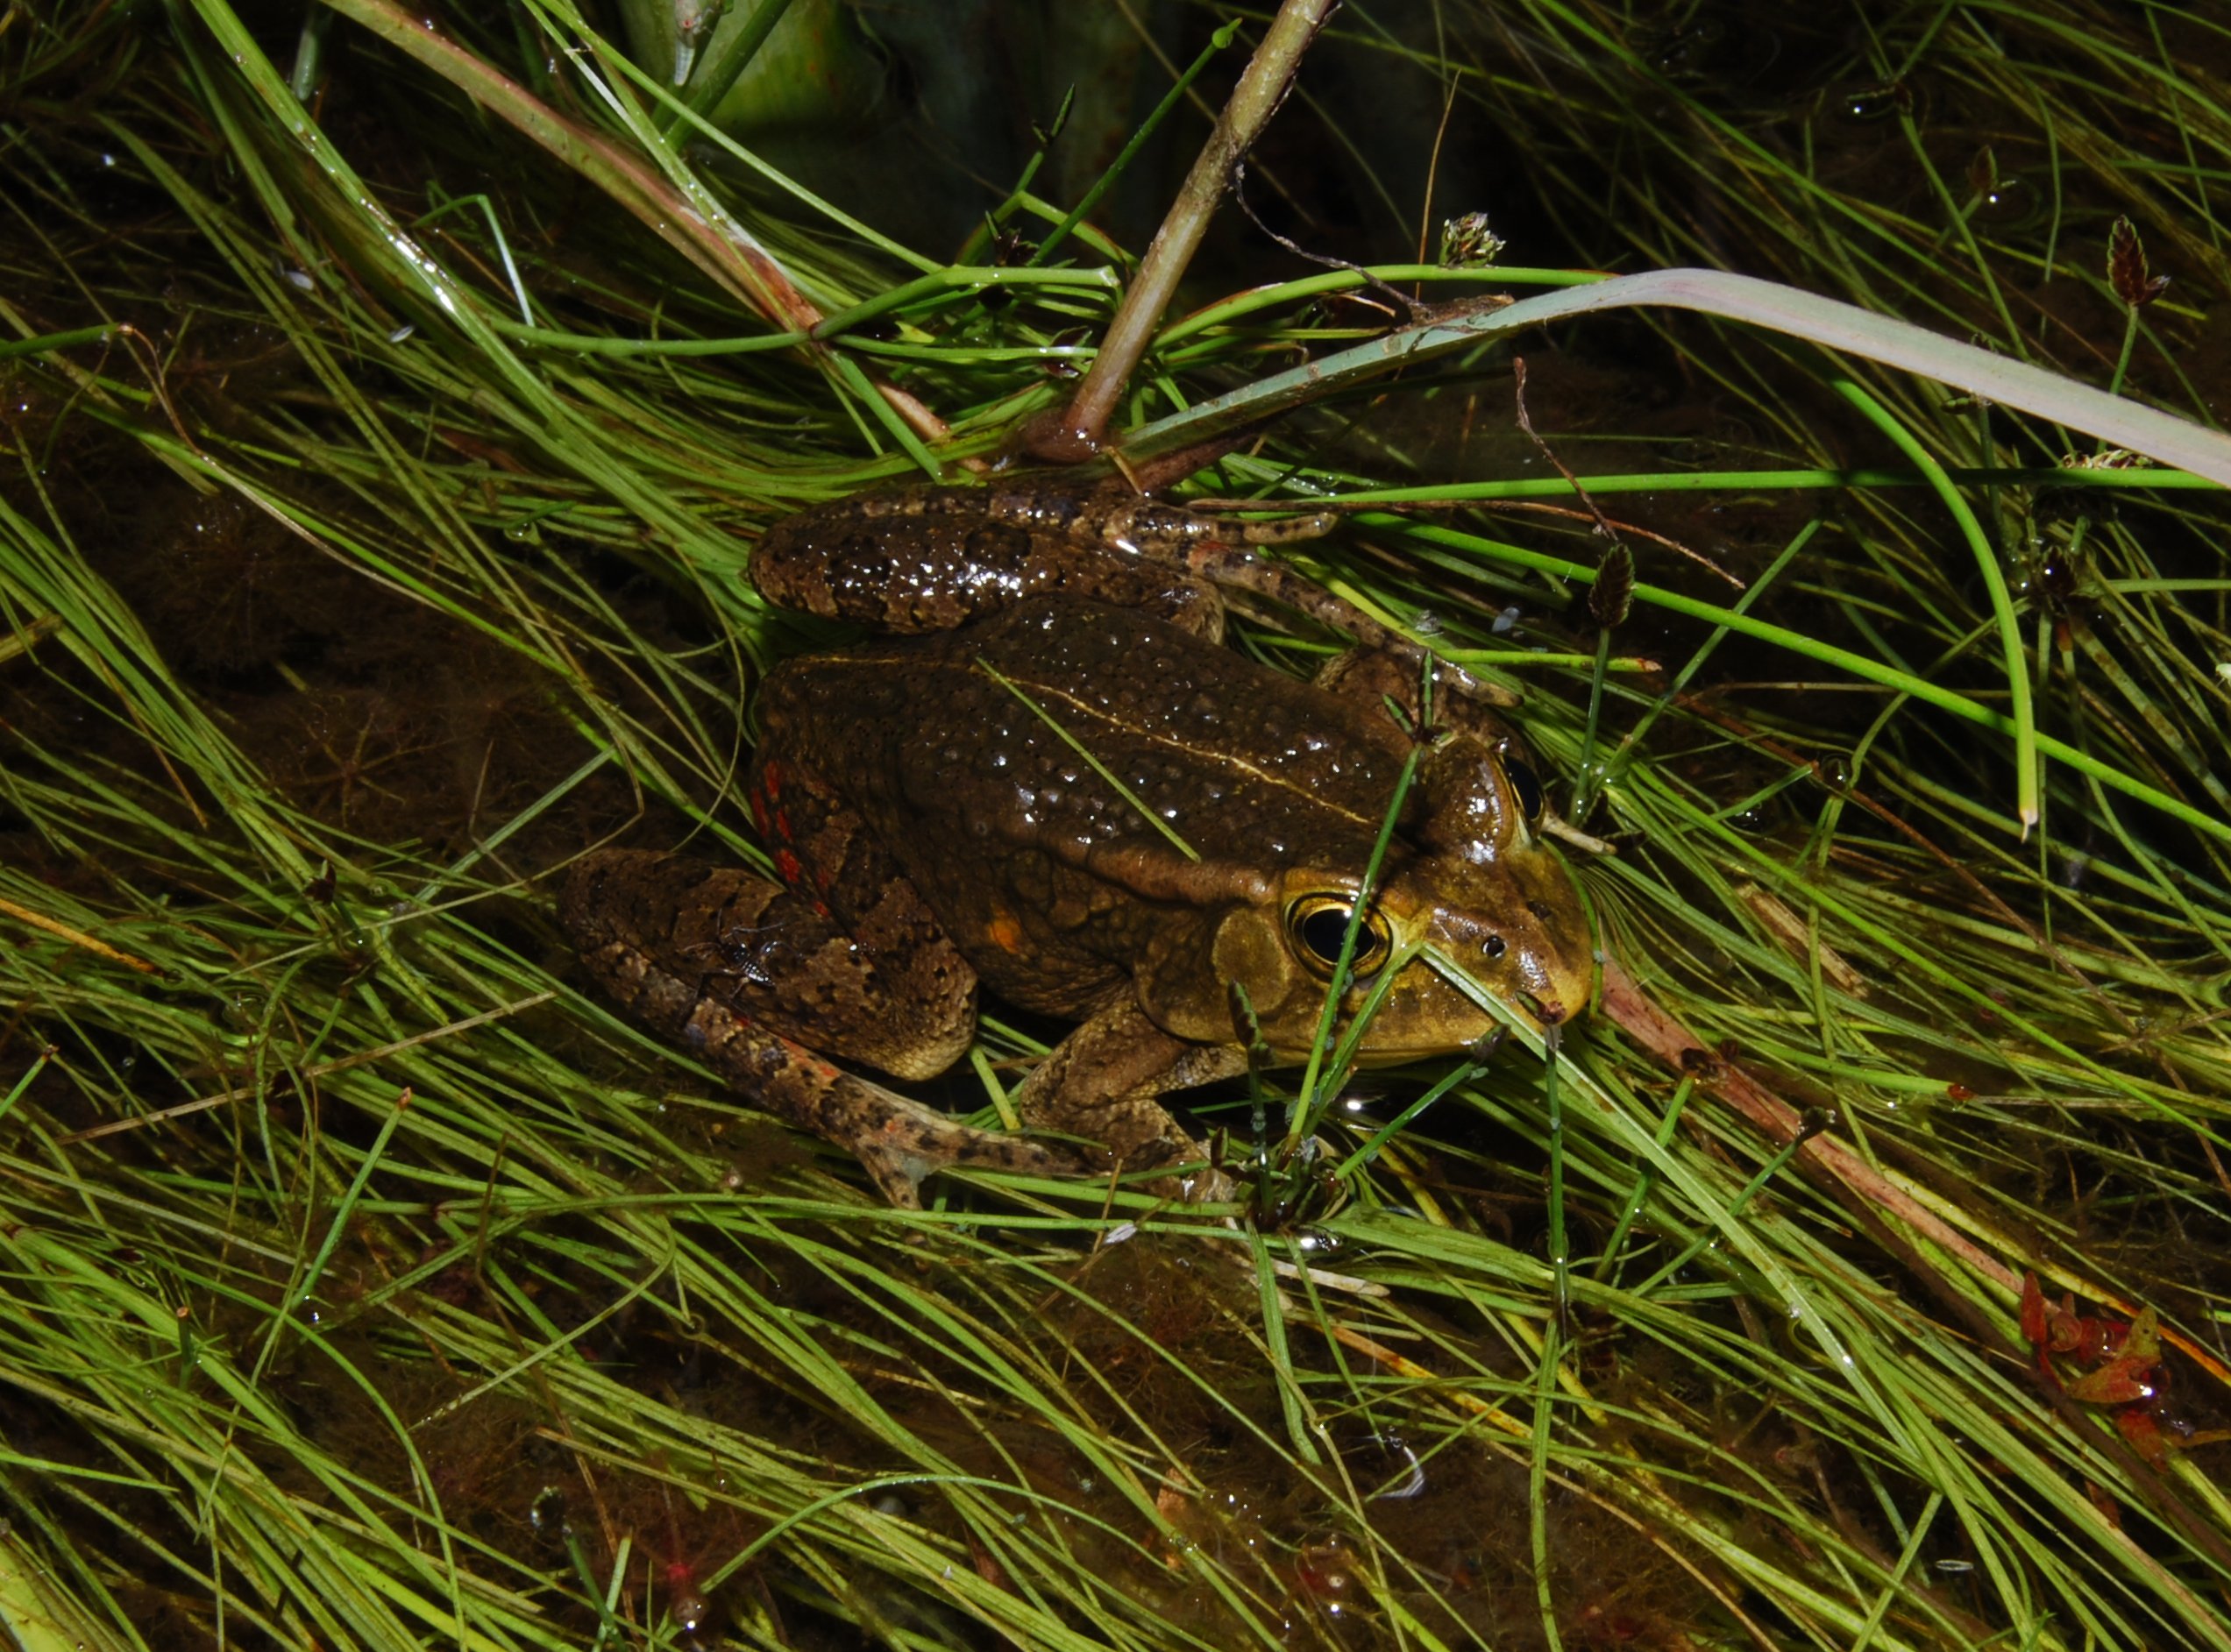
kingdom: Animalia
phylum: Chordata
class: Amphibia
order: Anura
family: Bufonidae
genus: Sclerophrys
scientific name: Sclerophrys lemairii
